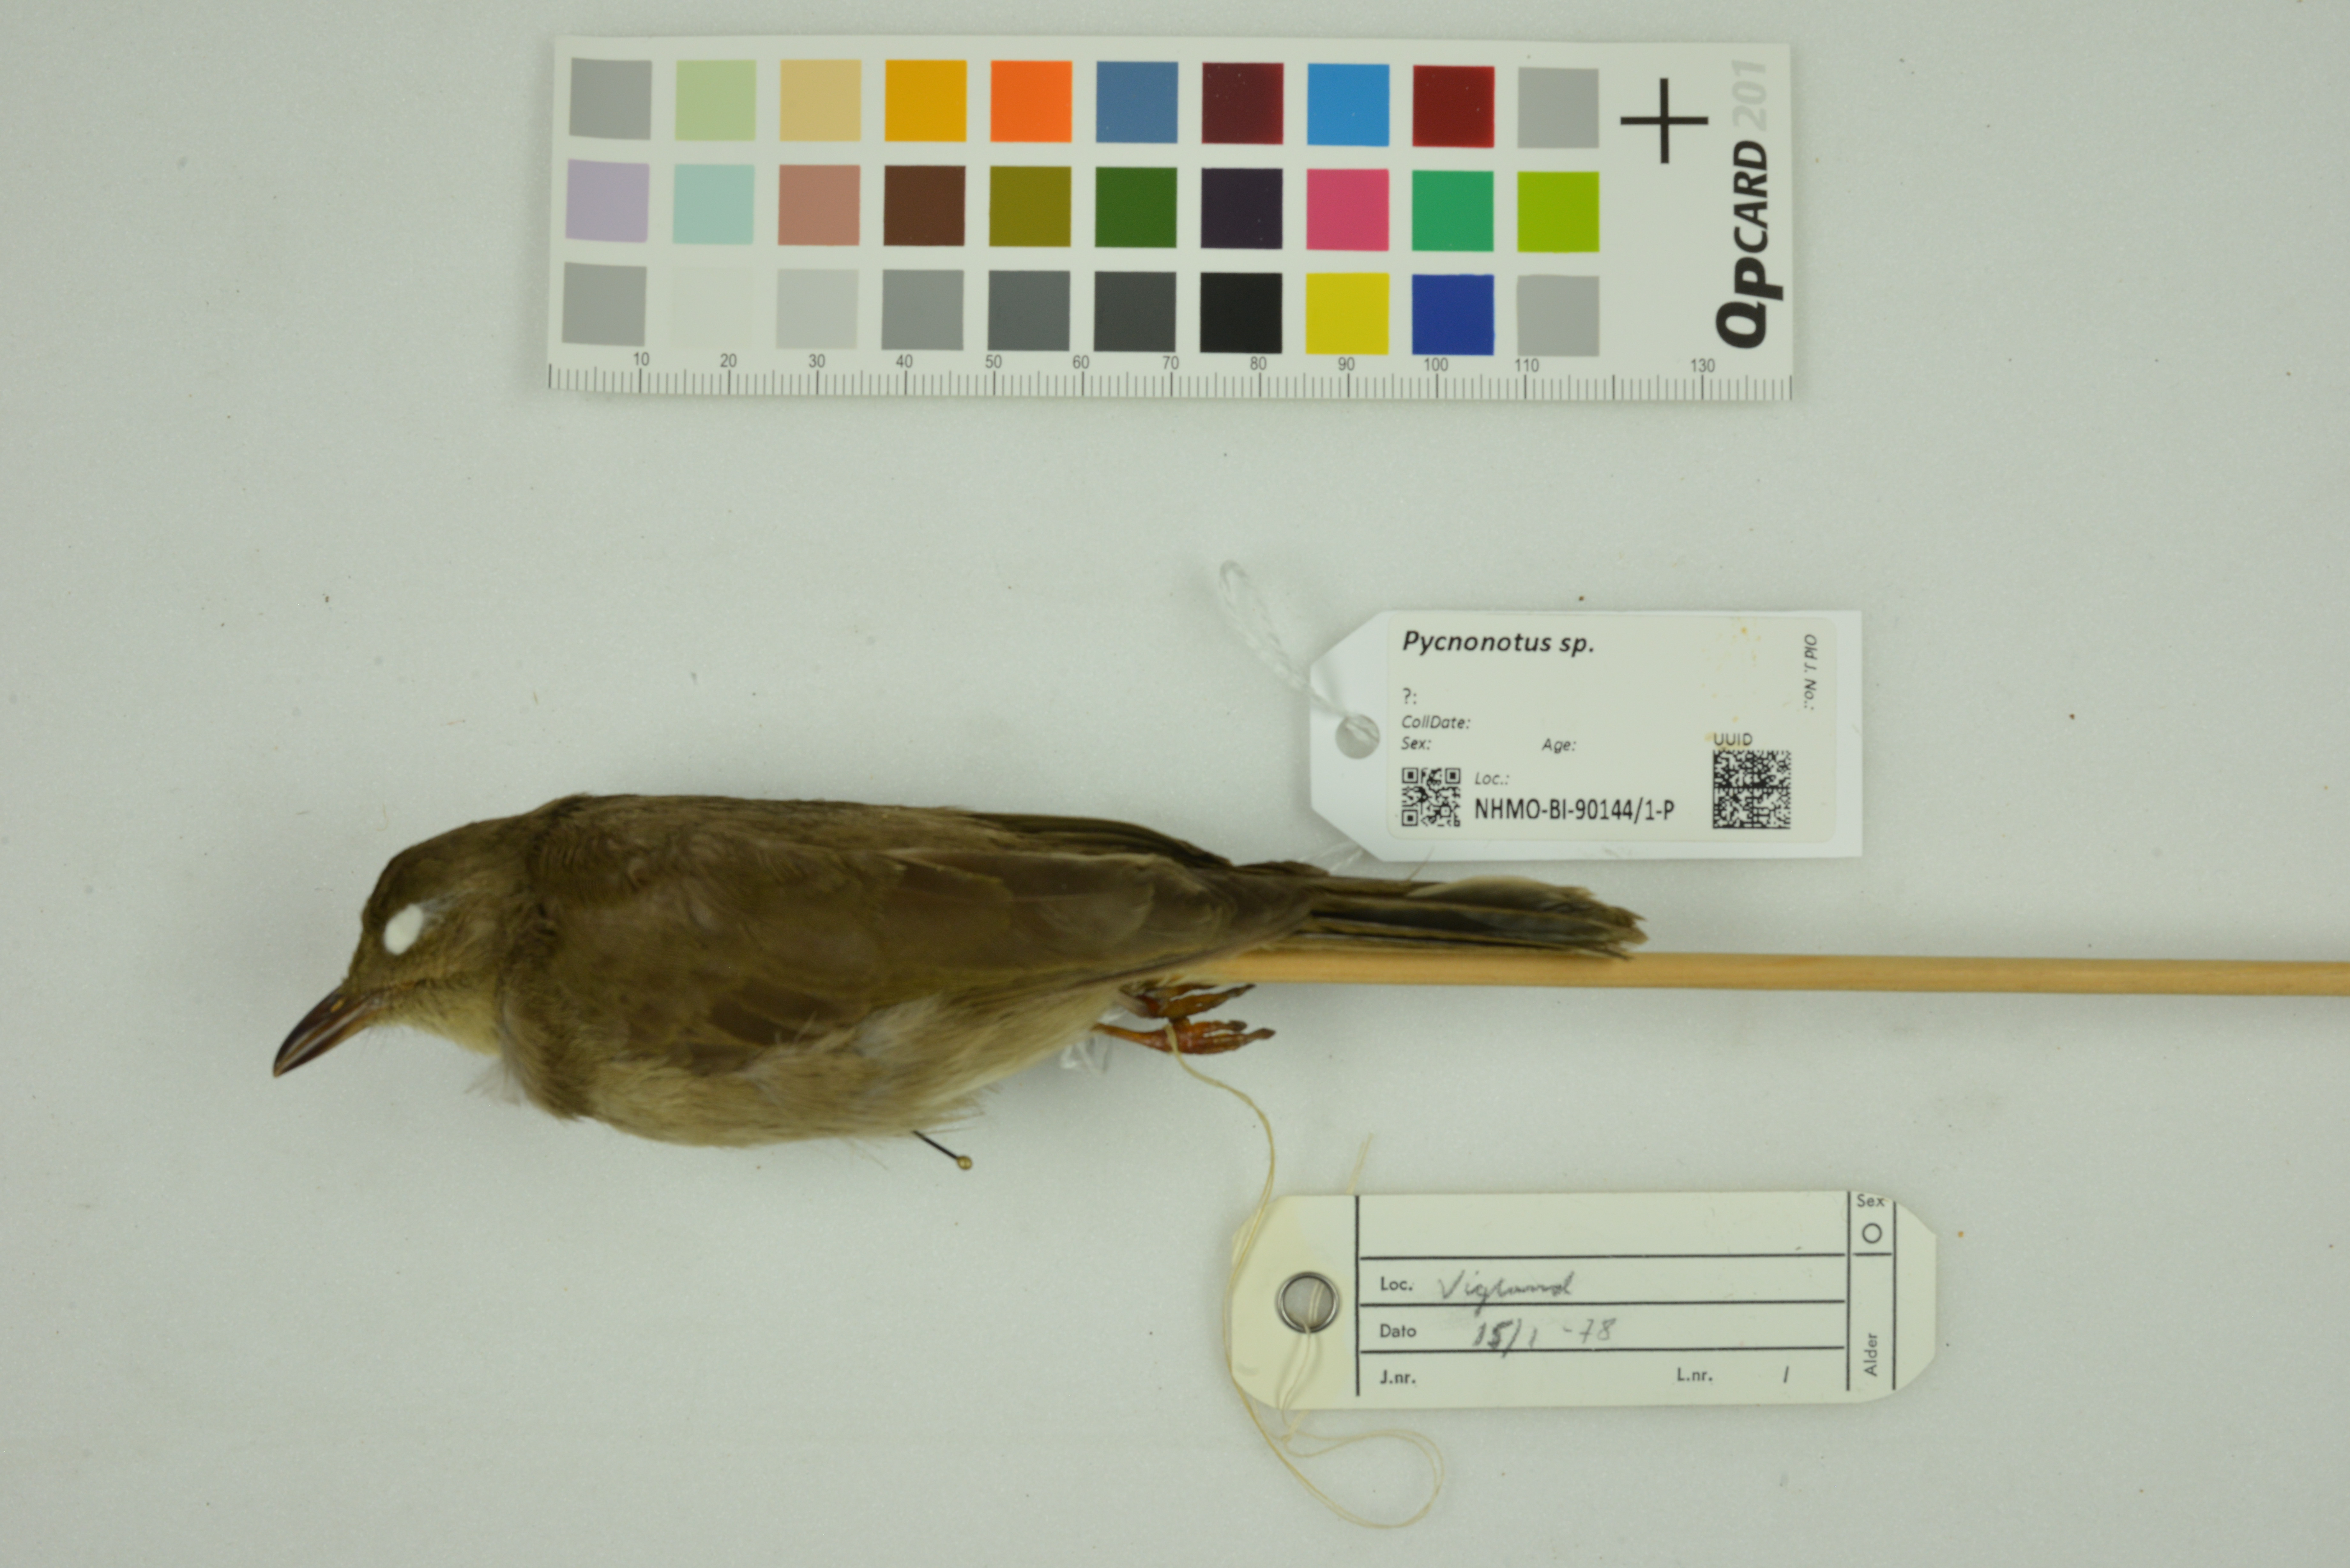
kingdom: Animalia
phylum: Chordata
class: Aves
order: Passeriformes
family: Pycnonotidae
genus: Pycnonotus
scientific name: Pycnonotus
